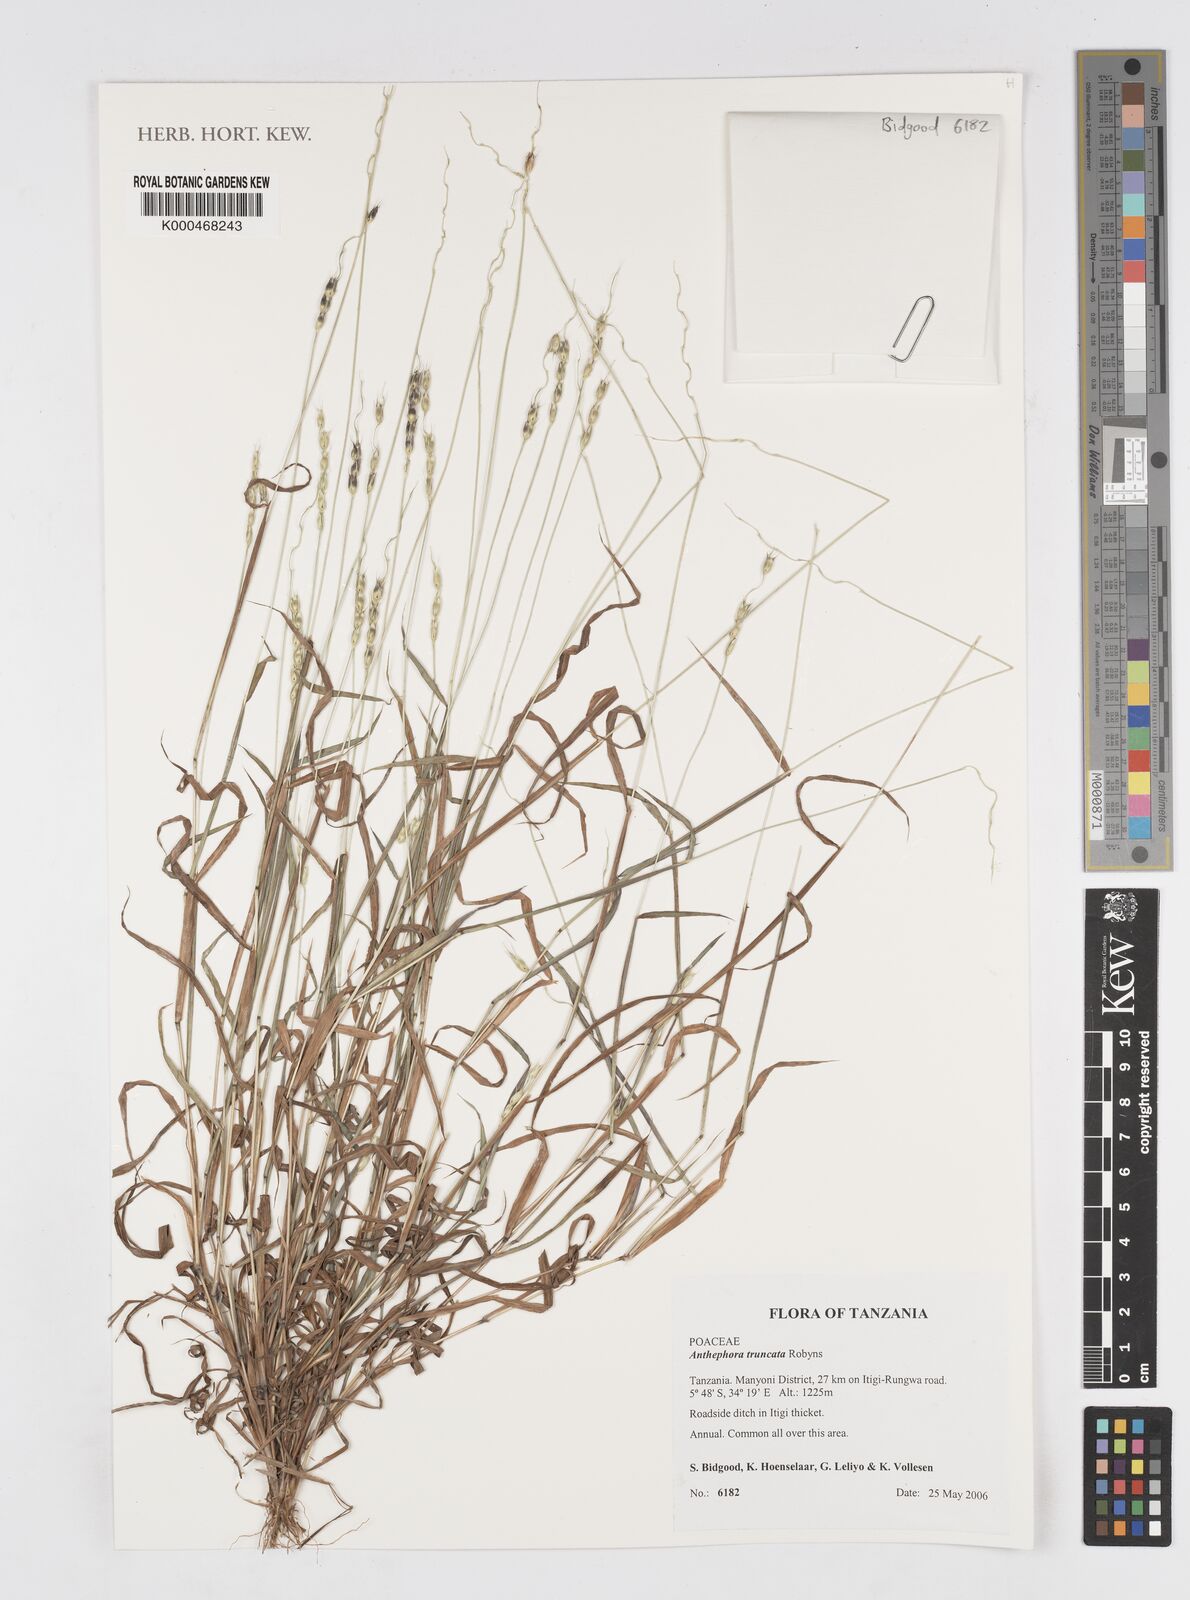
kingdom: Plantae
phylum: Tracheophyta
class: Liliopsida
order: Poales
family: Poaceae
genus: Anthephora
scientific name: Anthephora truncata
